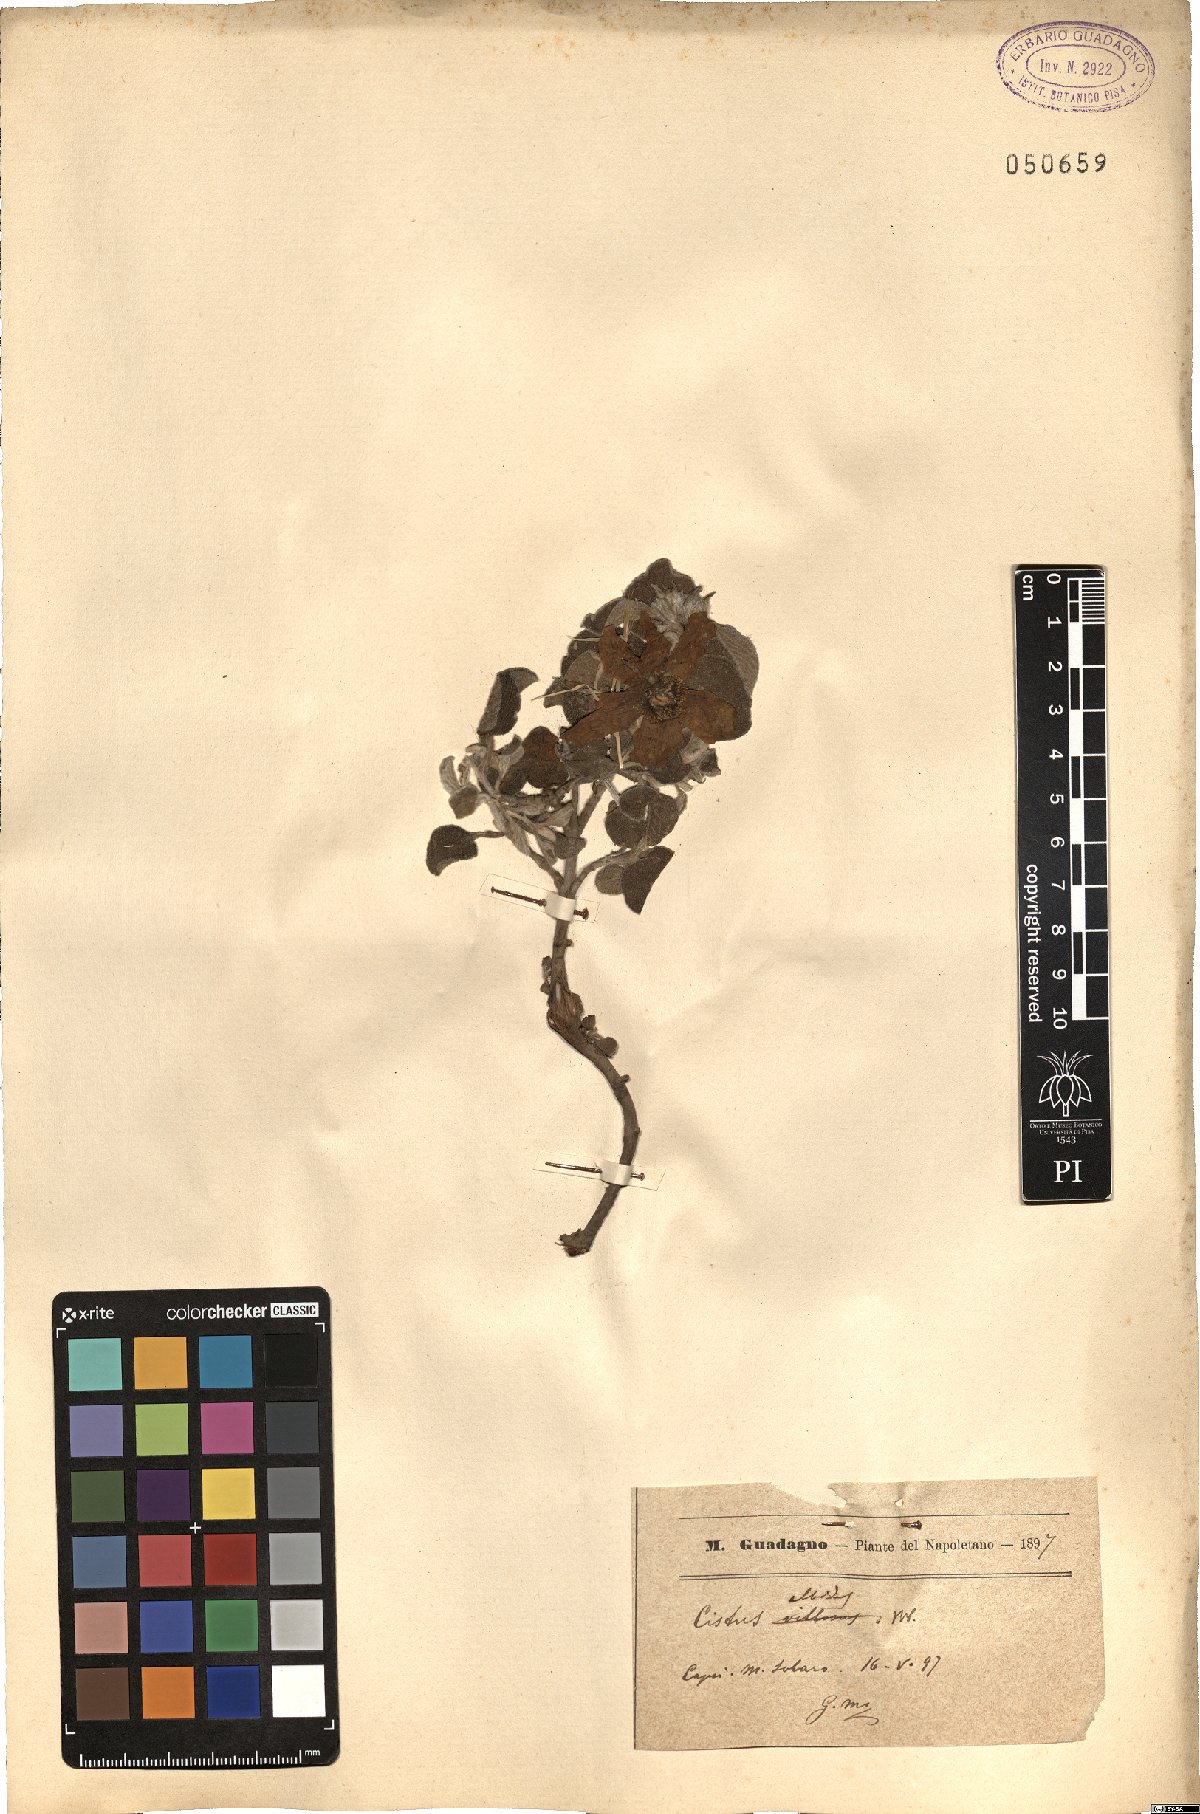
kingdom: Plantae
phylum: Tracheophyta
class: Magnoliopsida
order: Malvales
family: Cistaceae
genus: Cistus
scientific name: Cistus albidus
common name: White-leaf rock-rose
